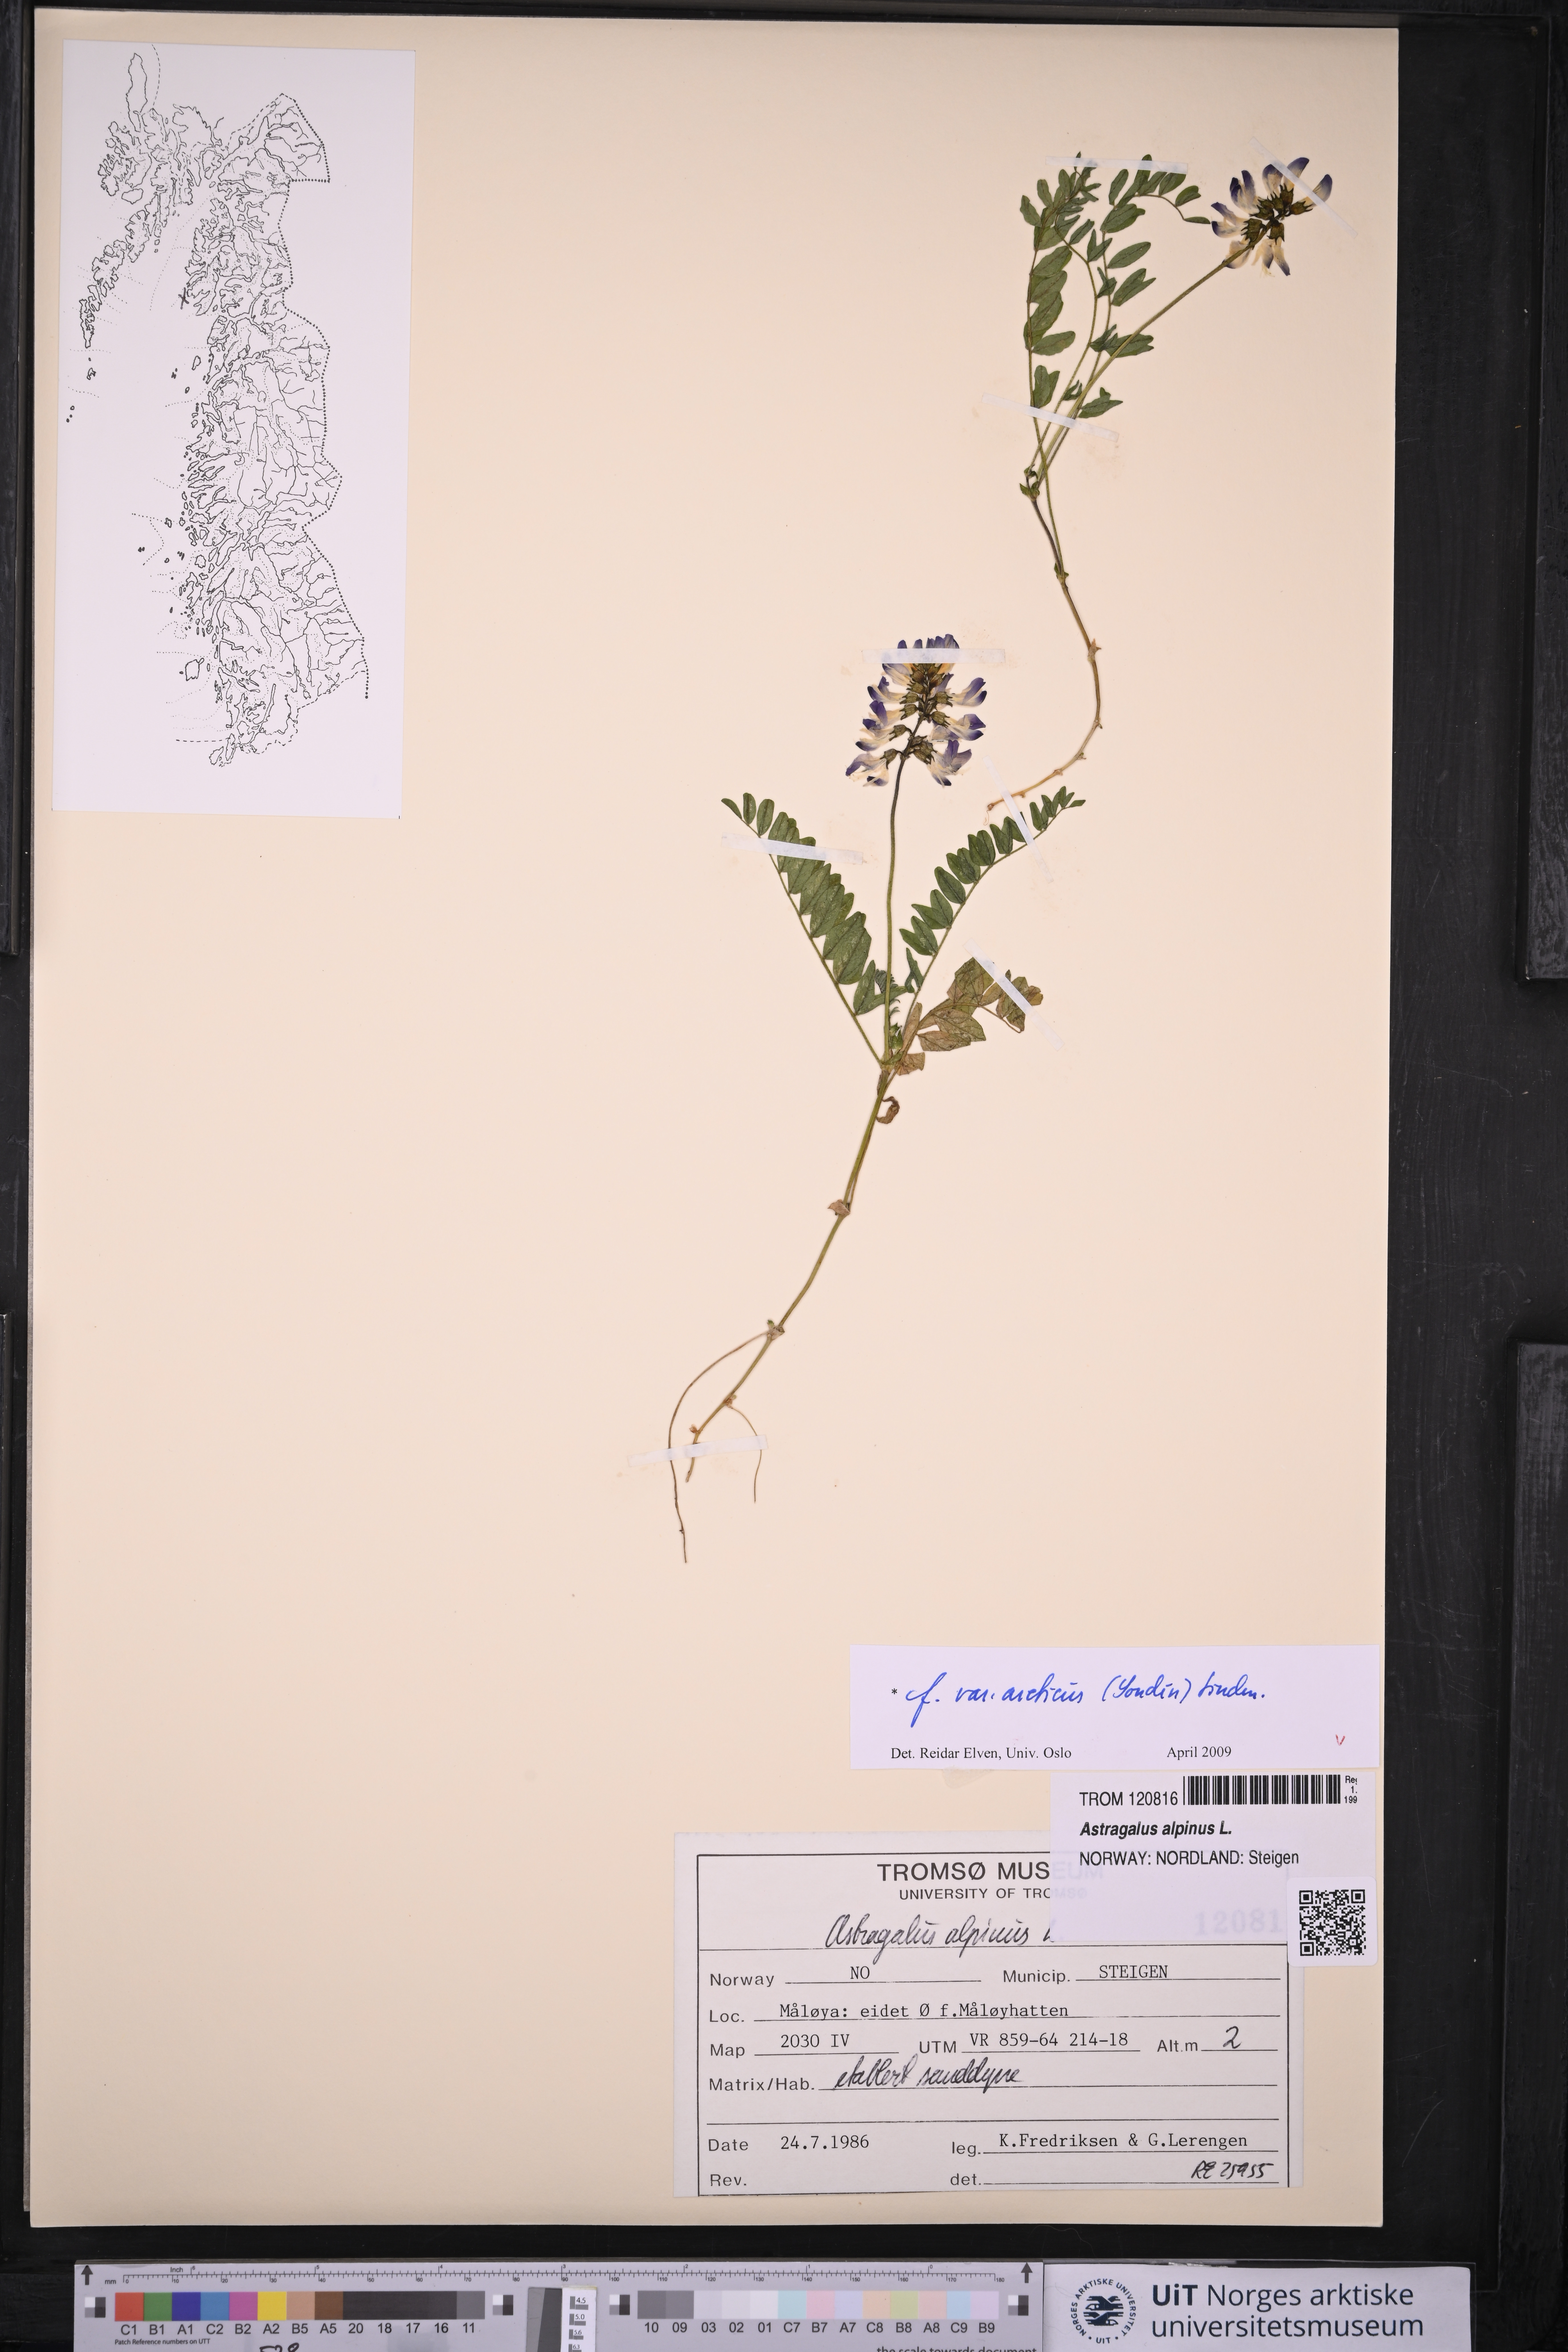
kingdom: Plantae
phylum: Tracheophyta
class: Magnoliopsida
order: Fabales
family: Fabaceae
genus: Astragalus
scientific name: Astragalus norvegicus
